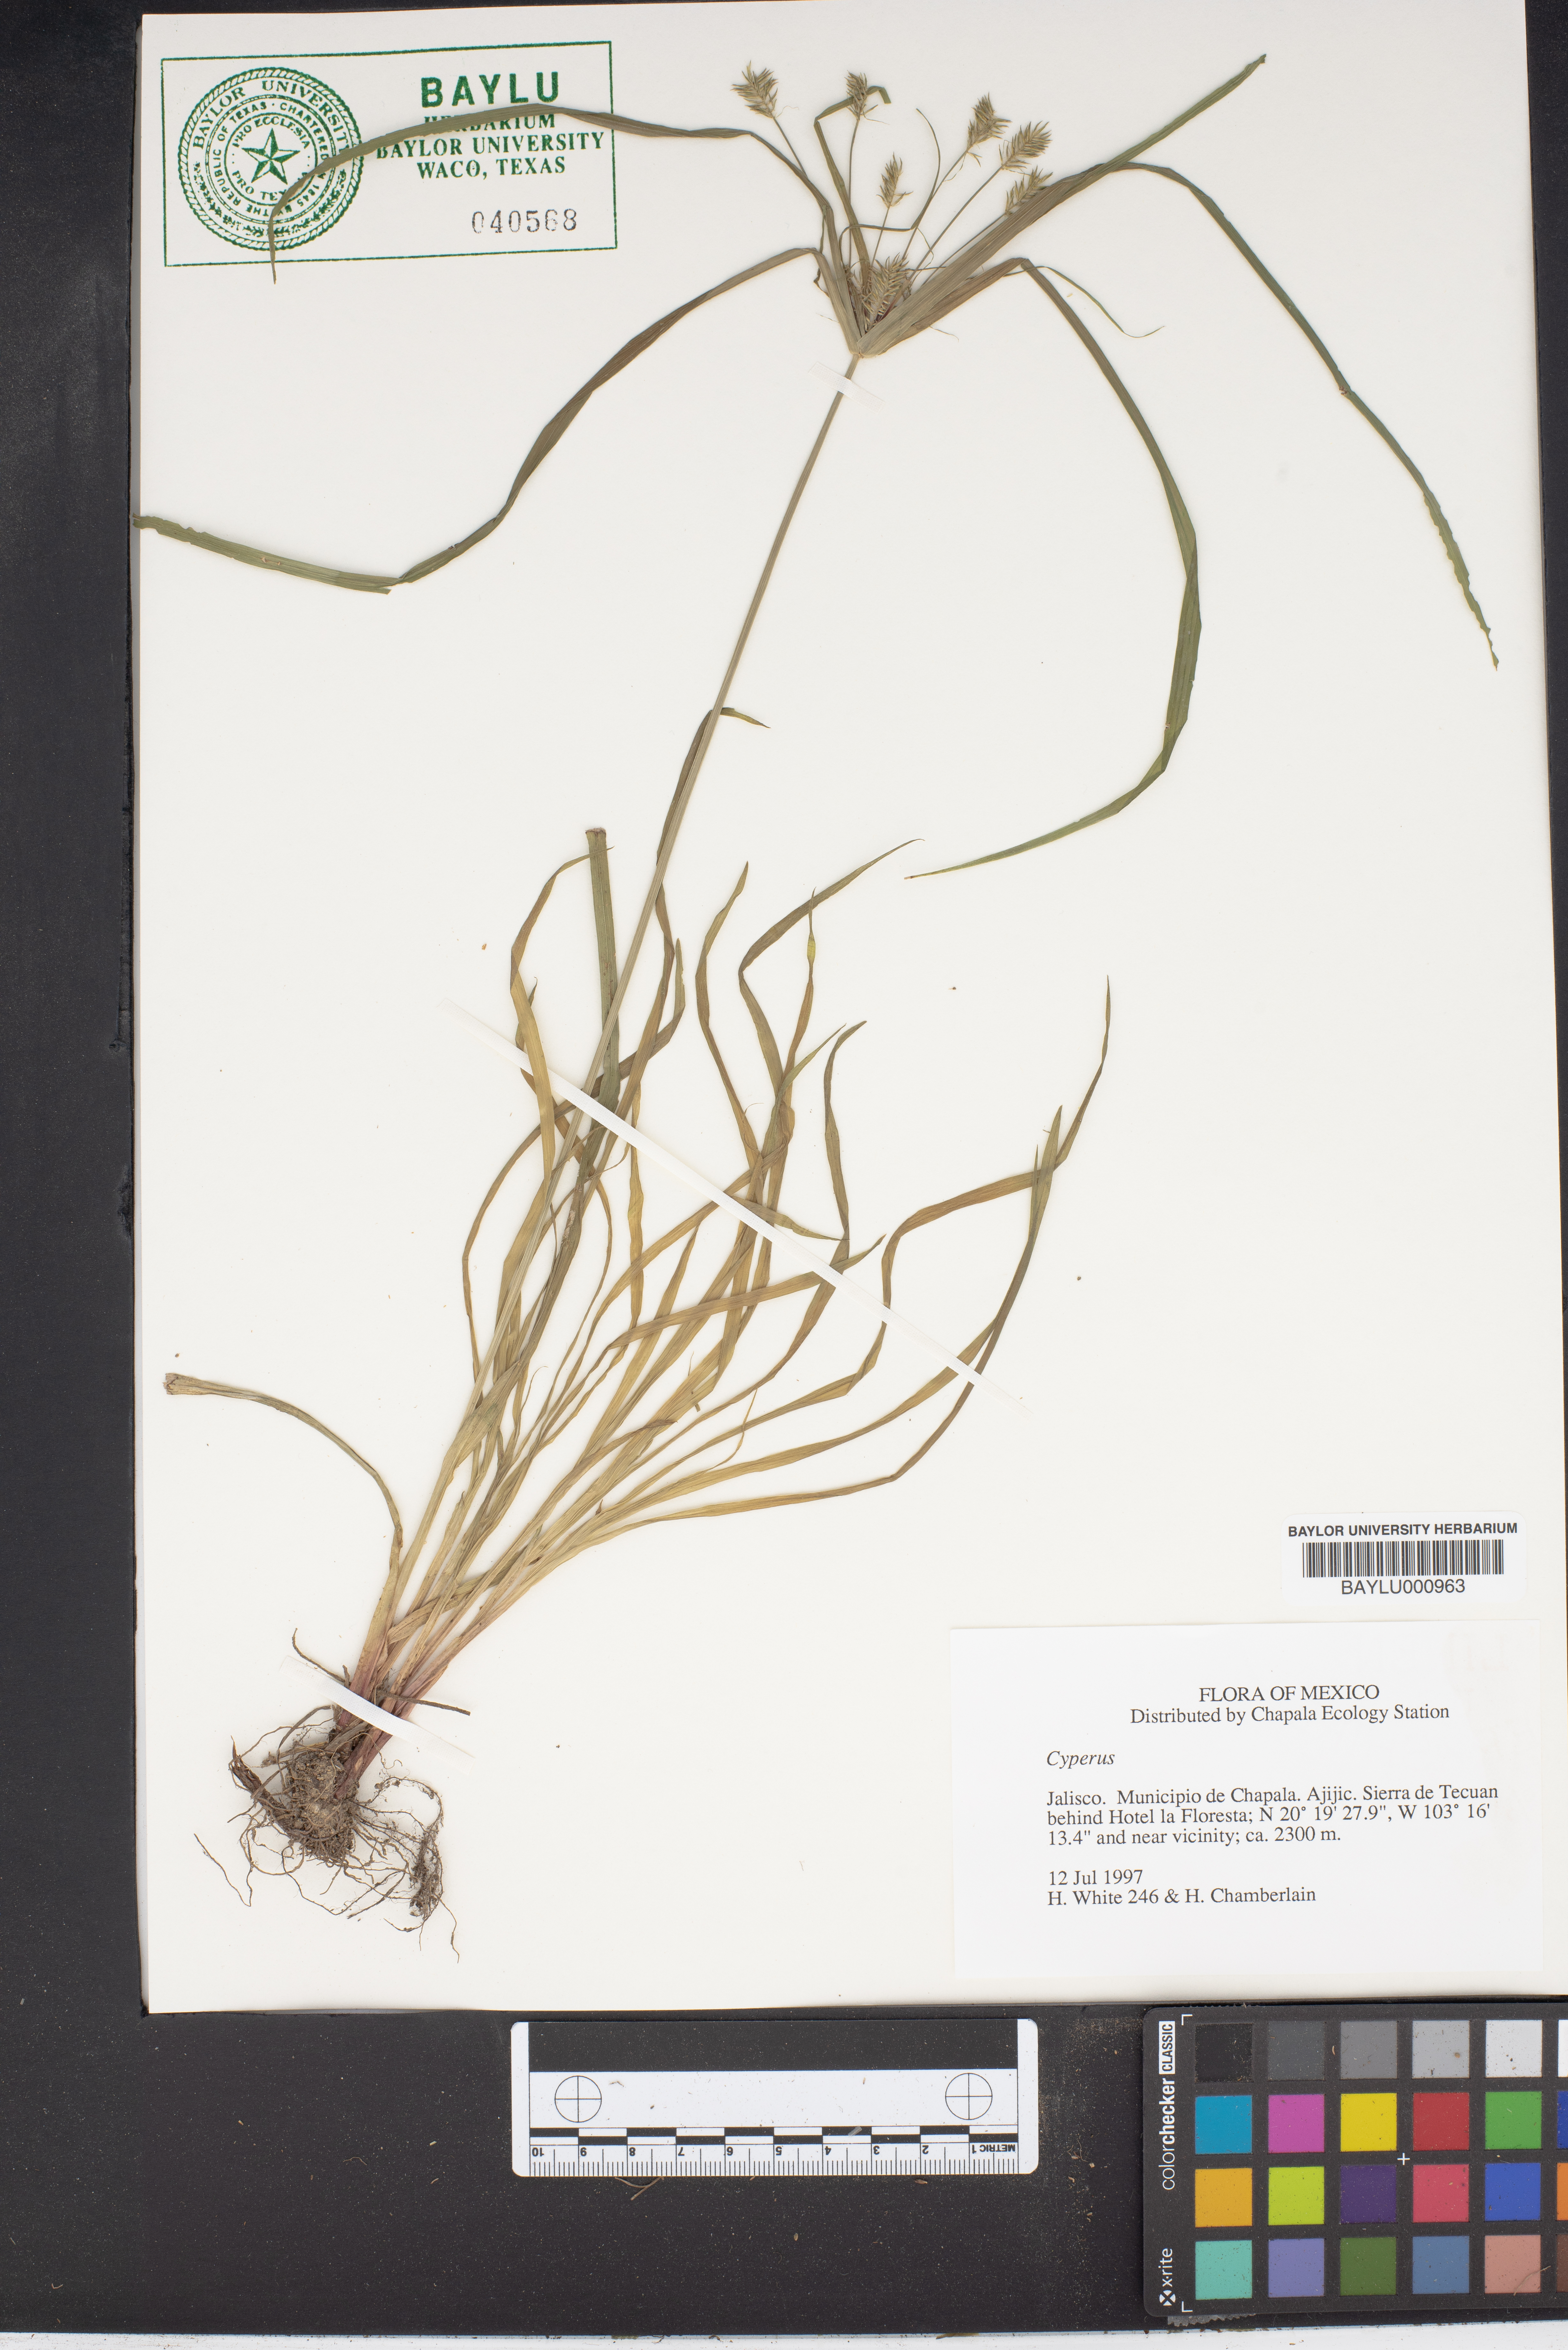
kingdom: Plantae
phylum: Tracheophyta
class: Liliopsida
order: Poales
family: Cyperaceae
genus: Cyperus
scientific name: Cyperus
